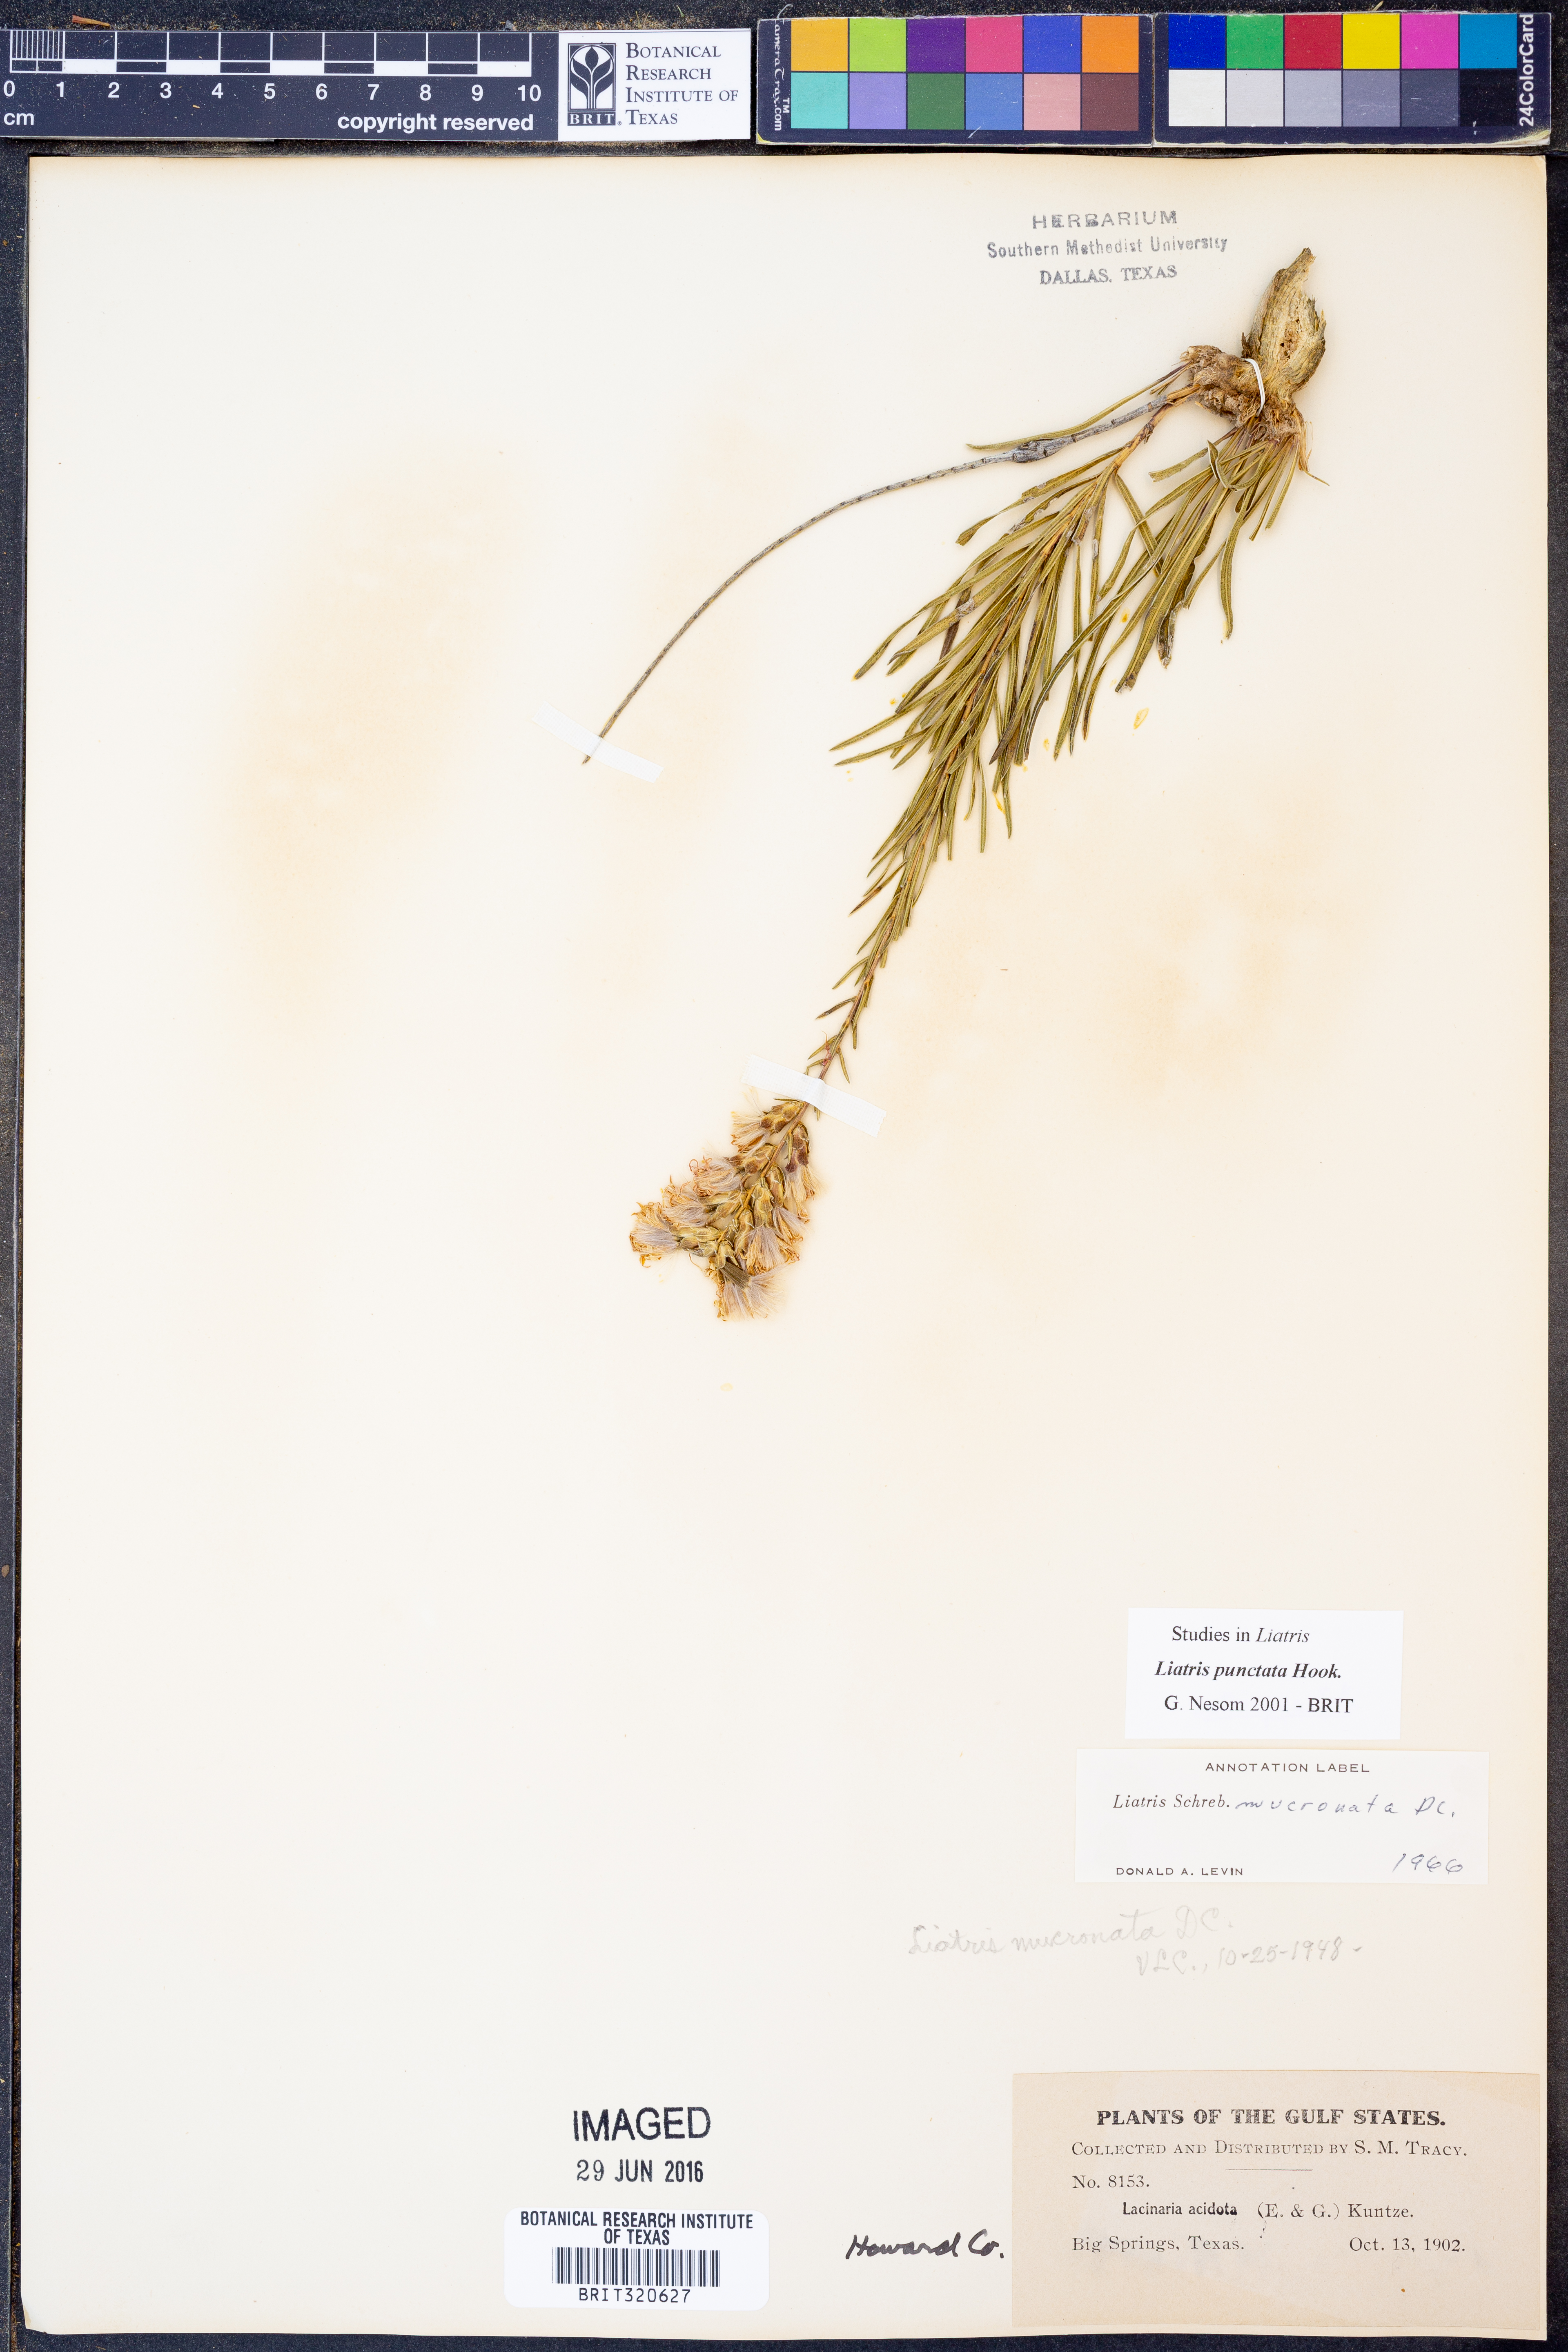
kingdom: Plantae
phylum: Tracheophyta
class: Magnoliopsida
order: Asterales
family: Asteraceae
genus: Liatris
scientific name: Liatris punctata
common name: Dotted gayfeather
